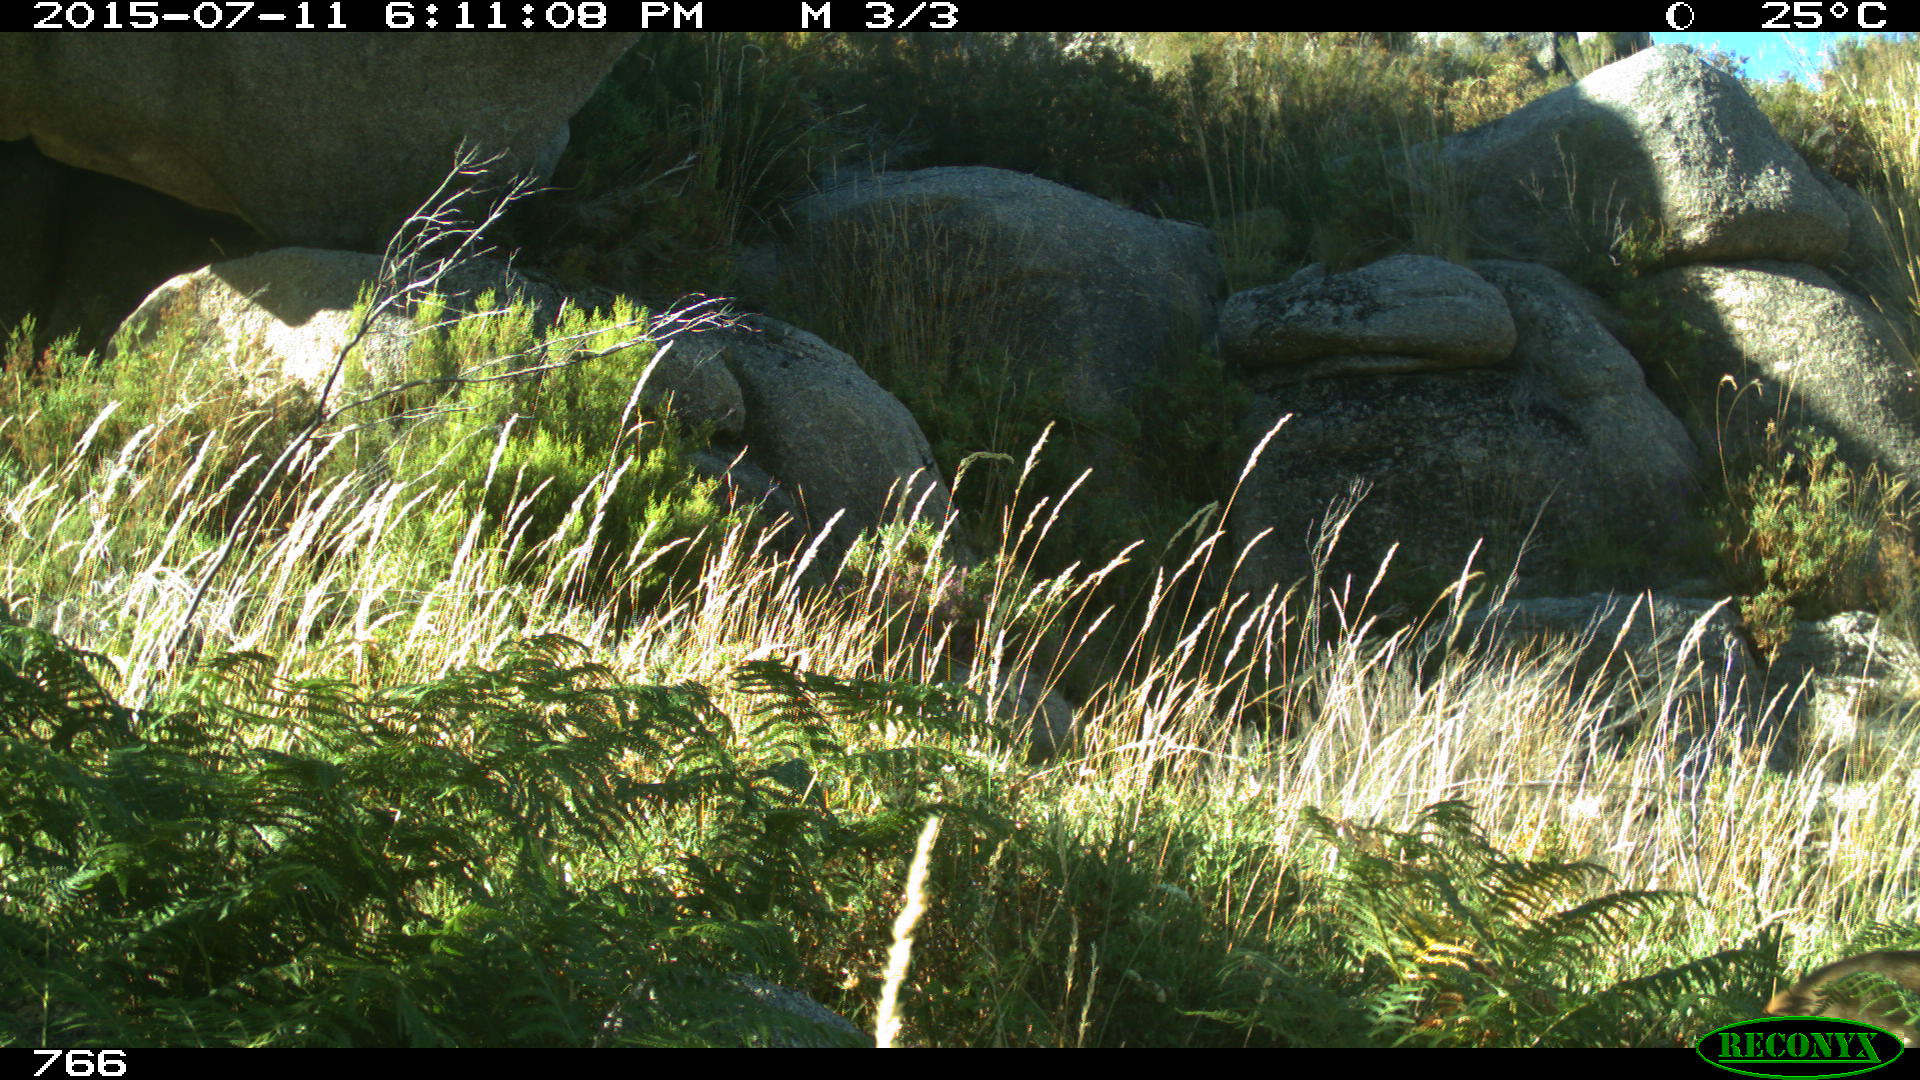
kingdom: Animalia
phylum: Chordata
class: Mammalia
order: Artiodactyla
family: Cervidae
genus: Capreolus
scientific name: Capreolus capreolus
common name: Western roe deer
